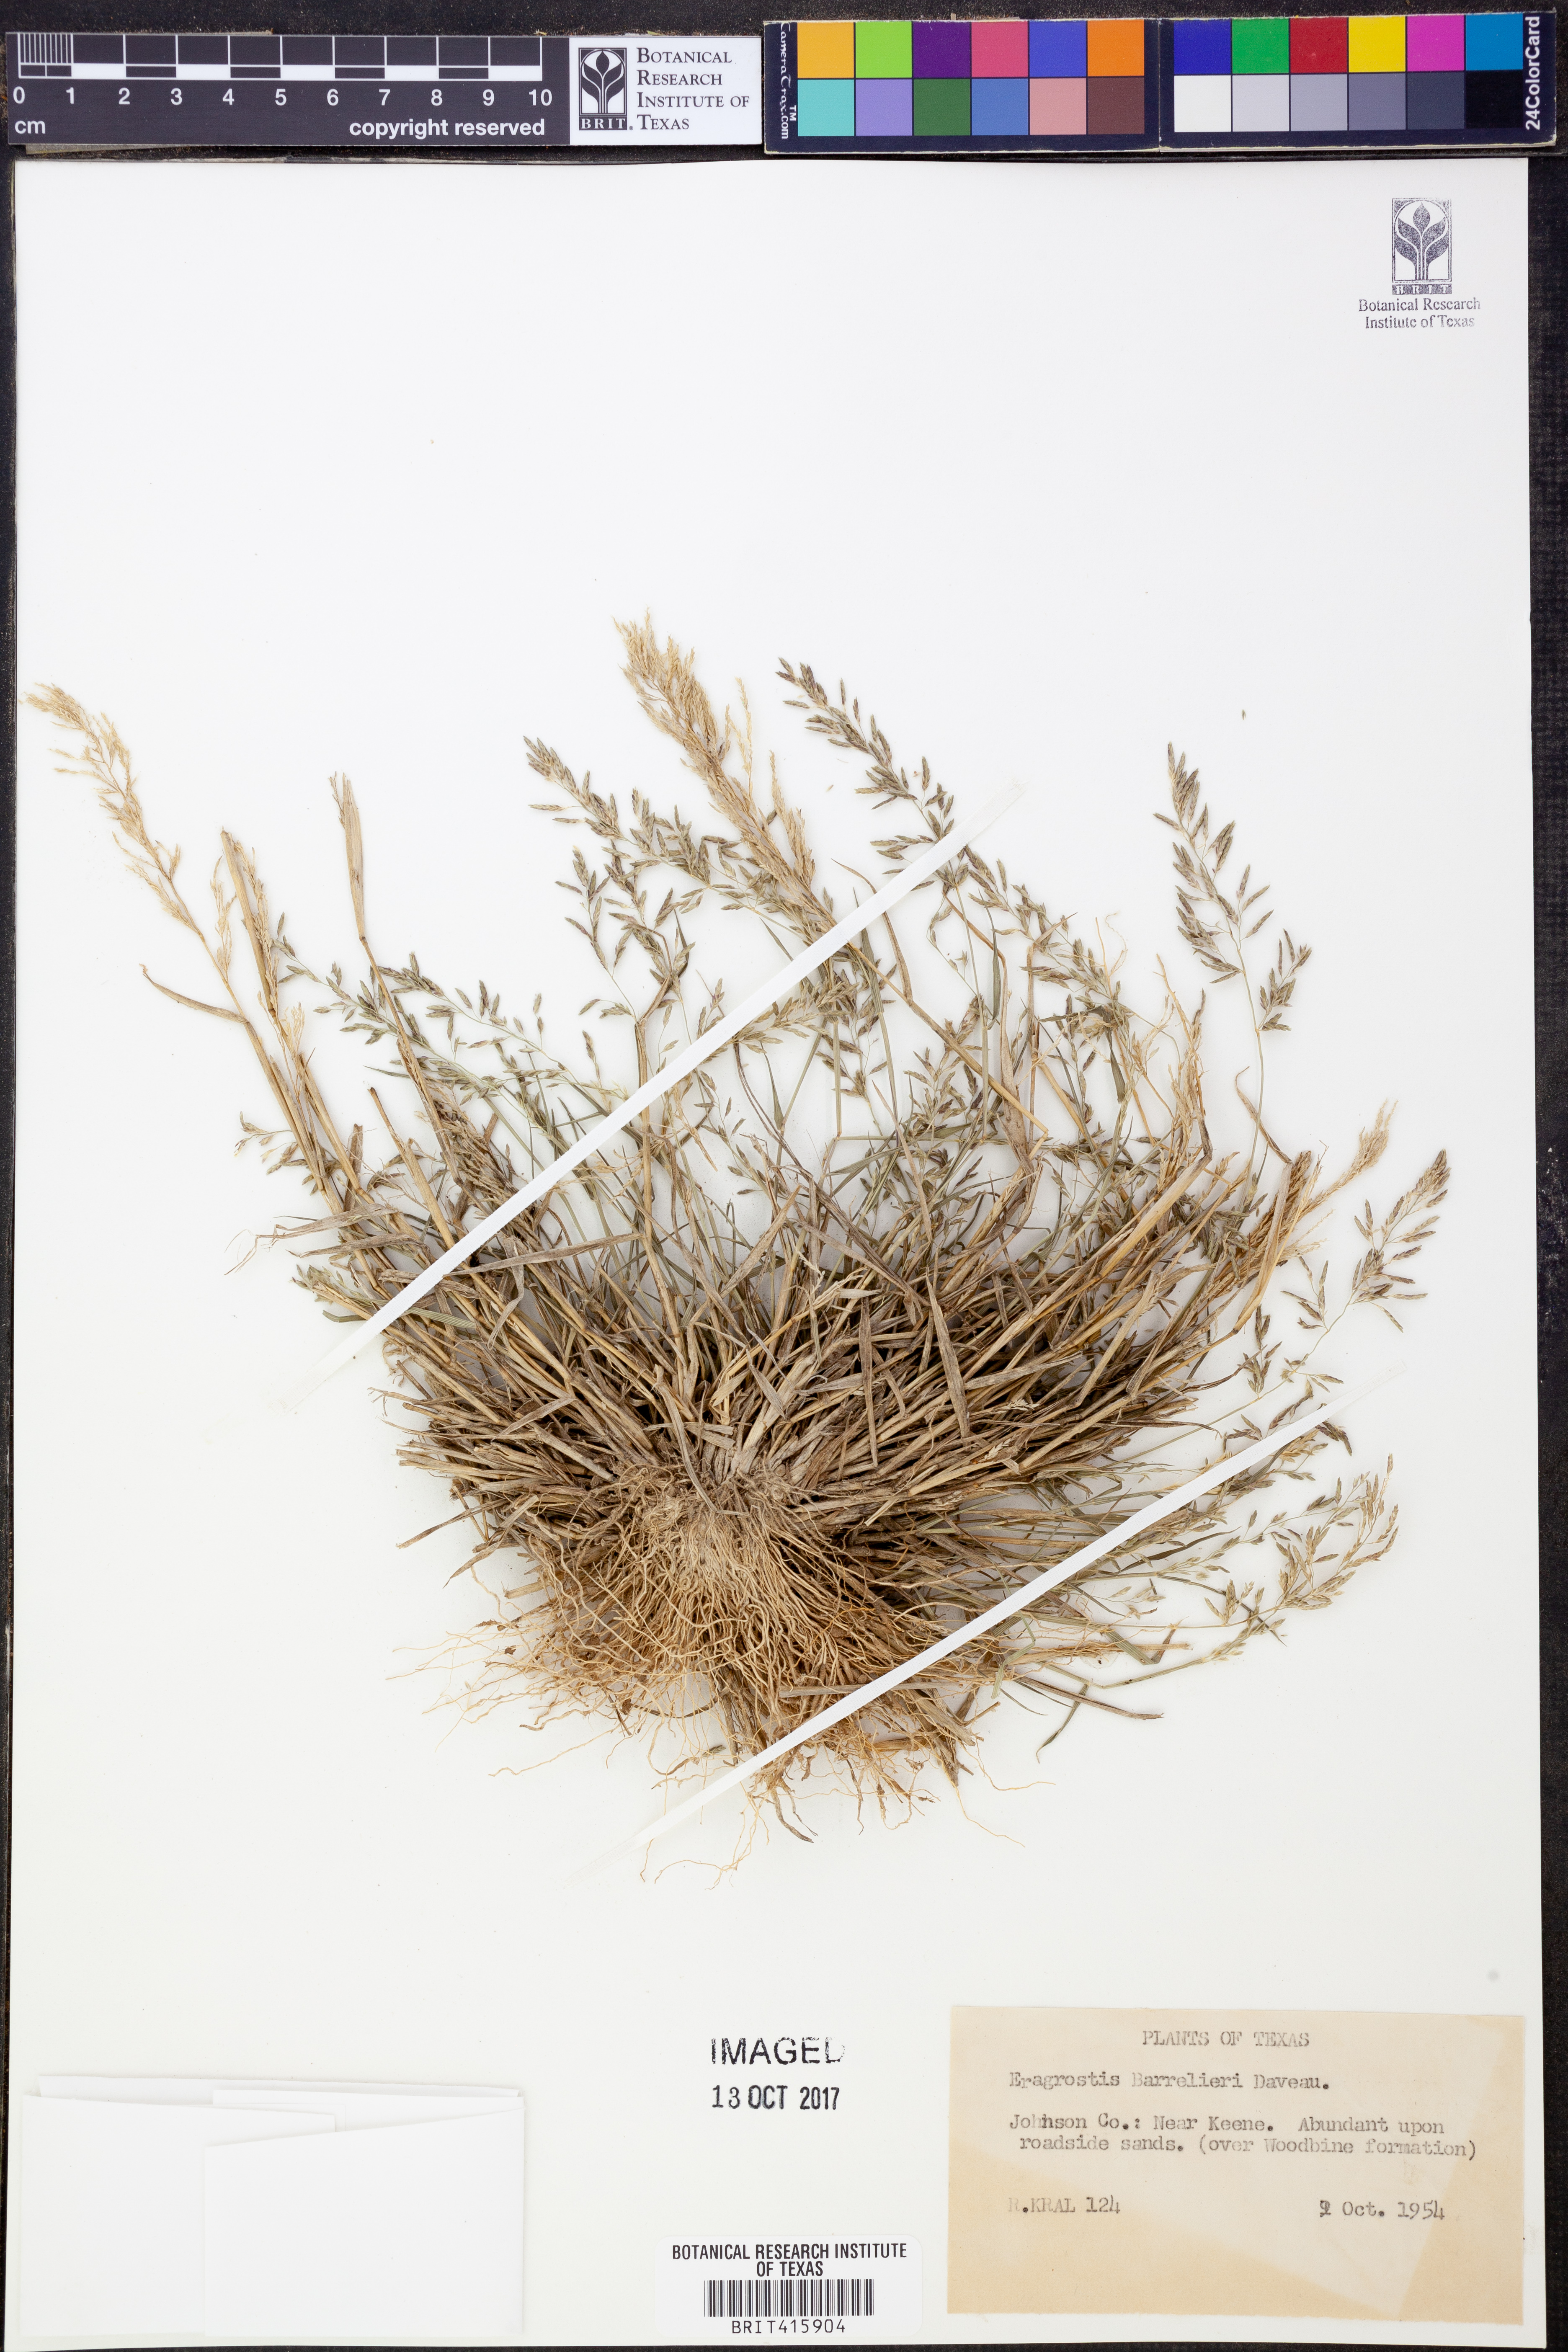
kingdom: Plantae
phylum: Tracheophyta
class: Liliopsida
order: Poales
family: Poaceae
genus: Eragrostis
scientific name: Eragrostis barrelieri
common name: Mediterranean lovegrass
